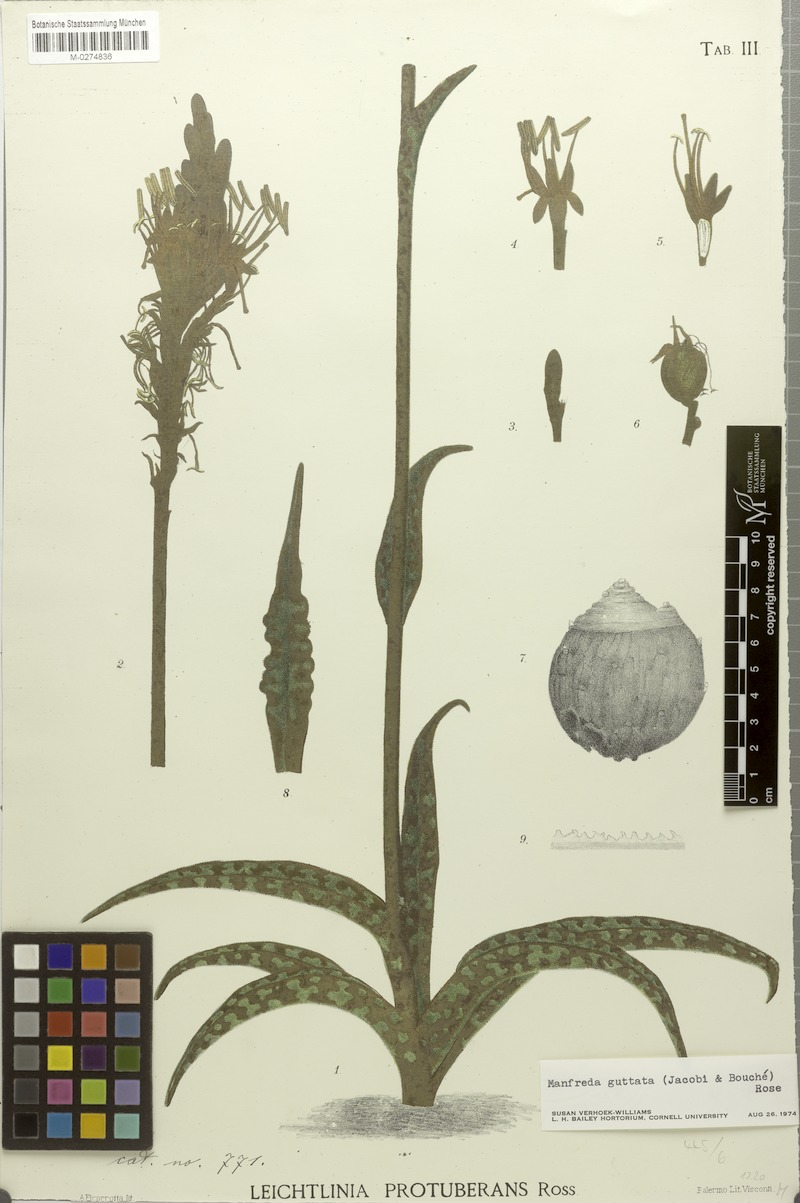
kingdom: Plantae
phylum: Tracheophyta
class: Liliopsida
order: Asparagales
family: Asparagaceae
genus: Agave
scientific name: Agave guttata
